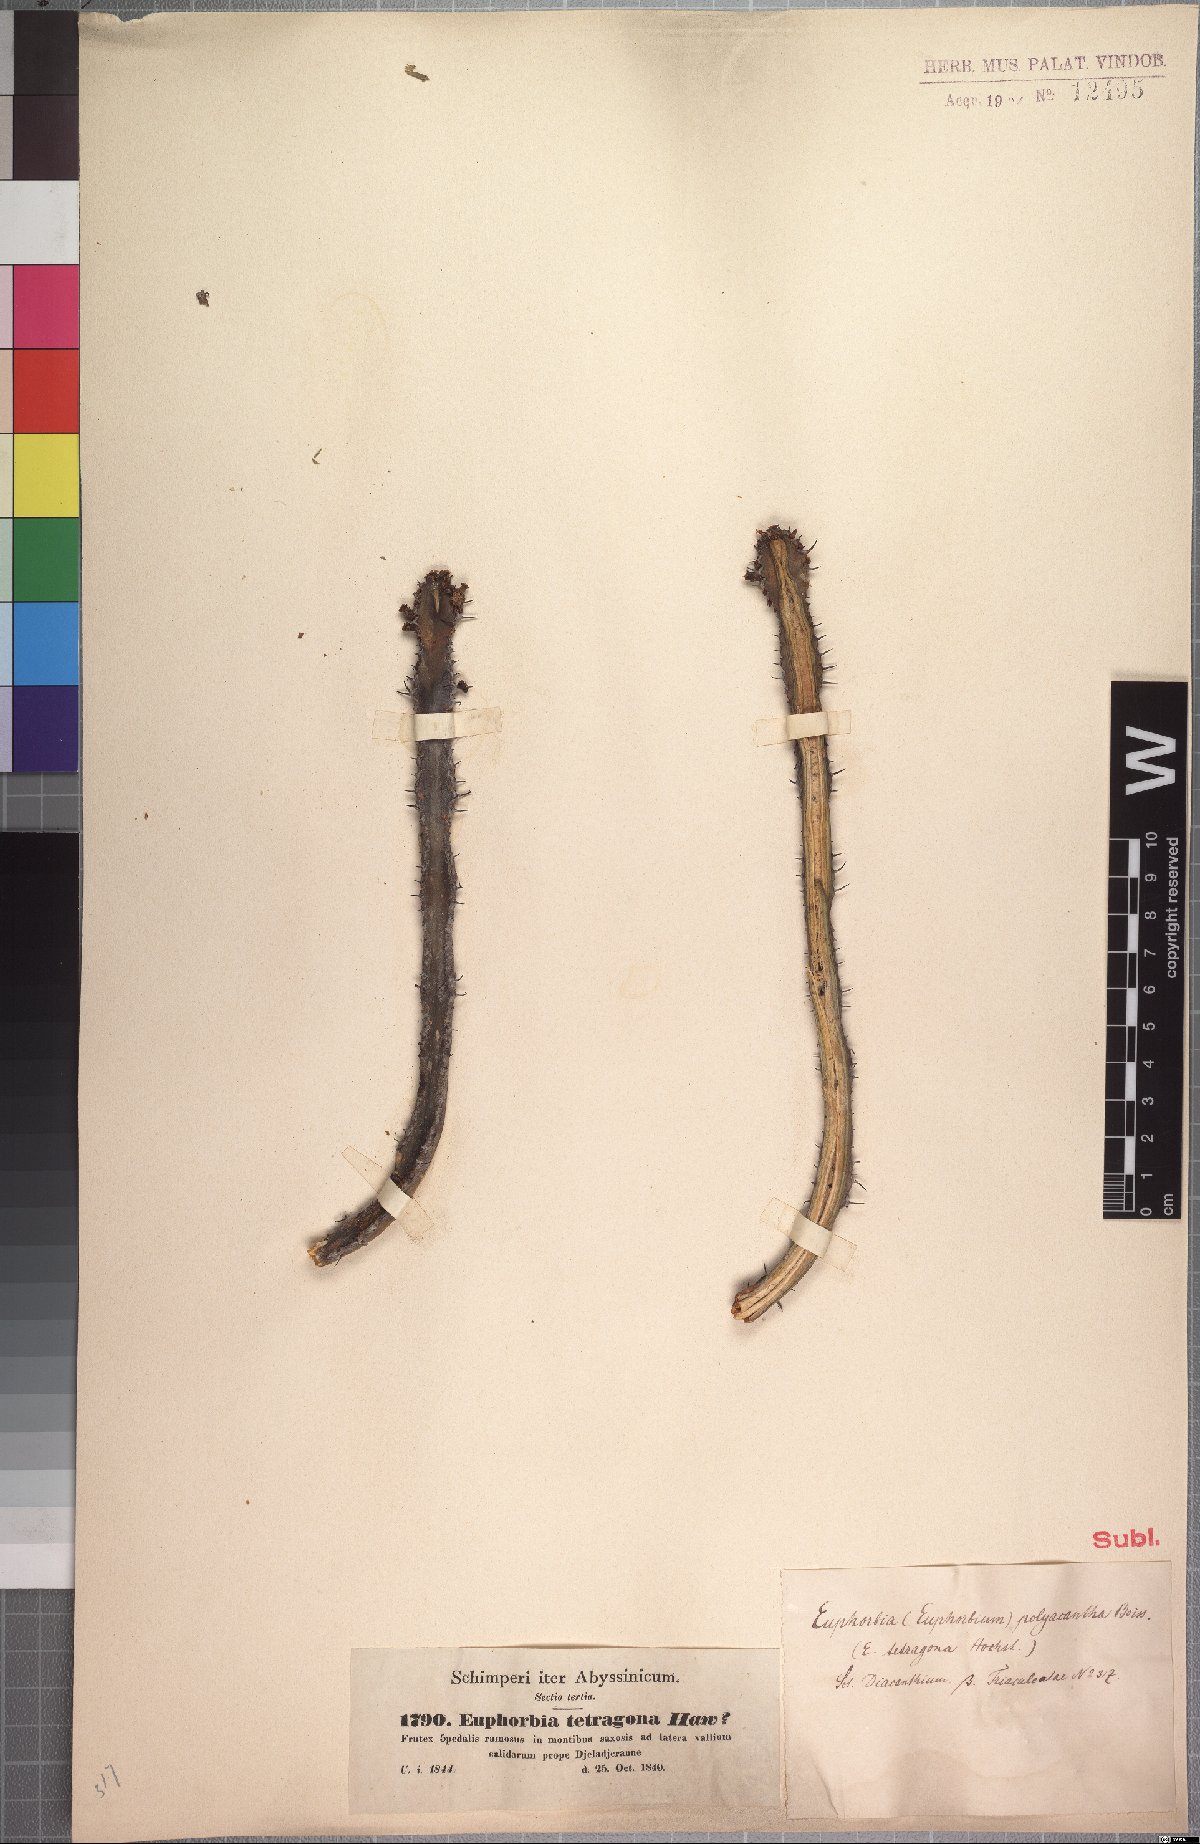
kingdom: Plantae
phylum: Tracheophyta
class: Magnoliopsida
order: Malpighiales
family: Euphorbiaceae
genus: Euphorbia
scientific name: Euphorbia polyacantha
